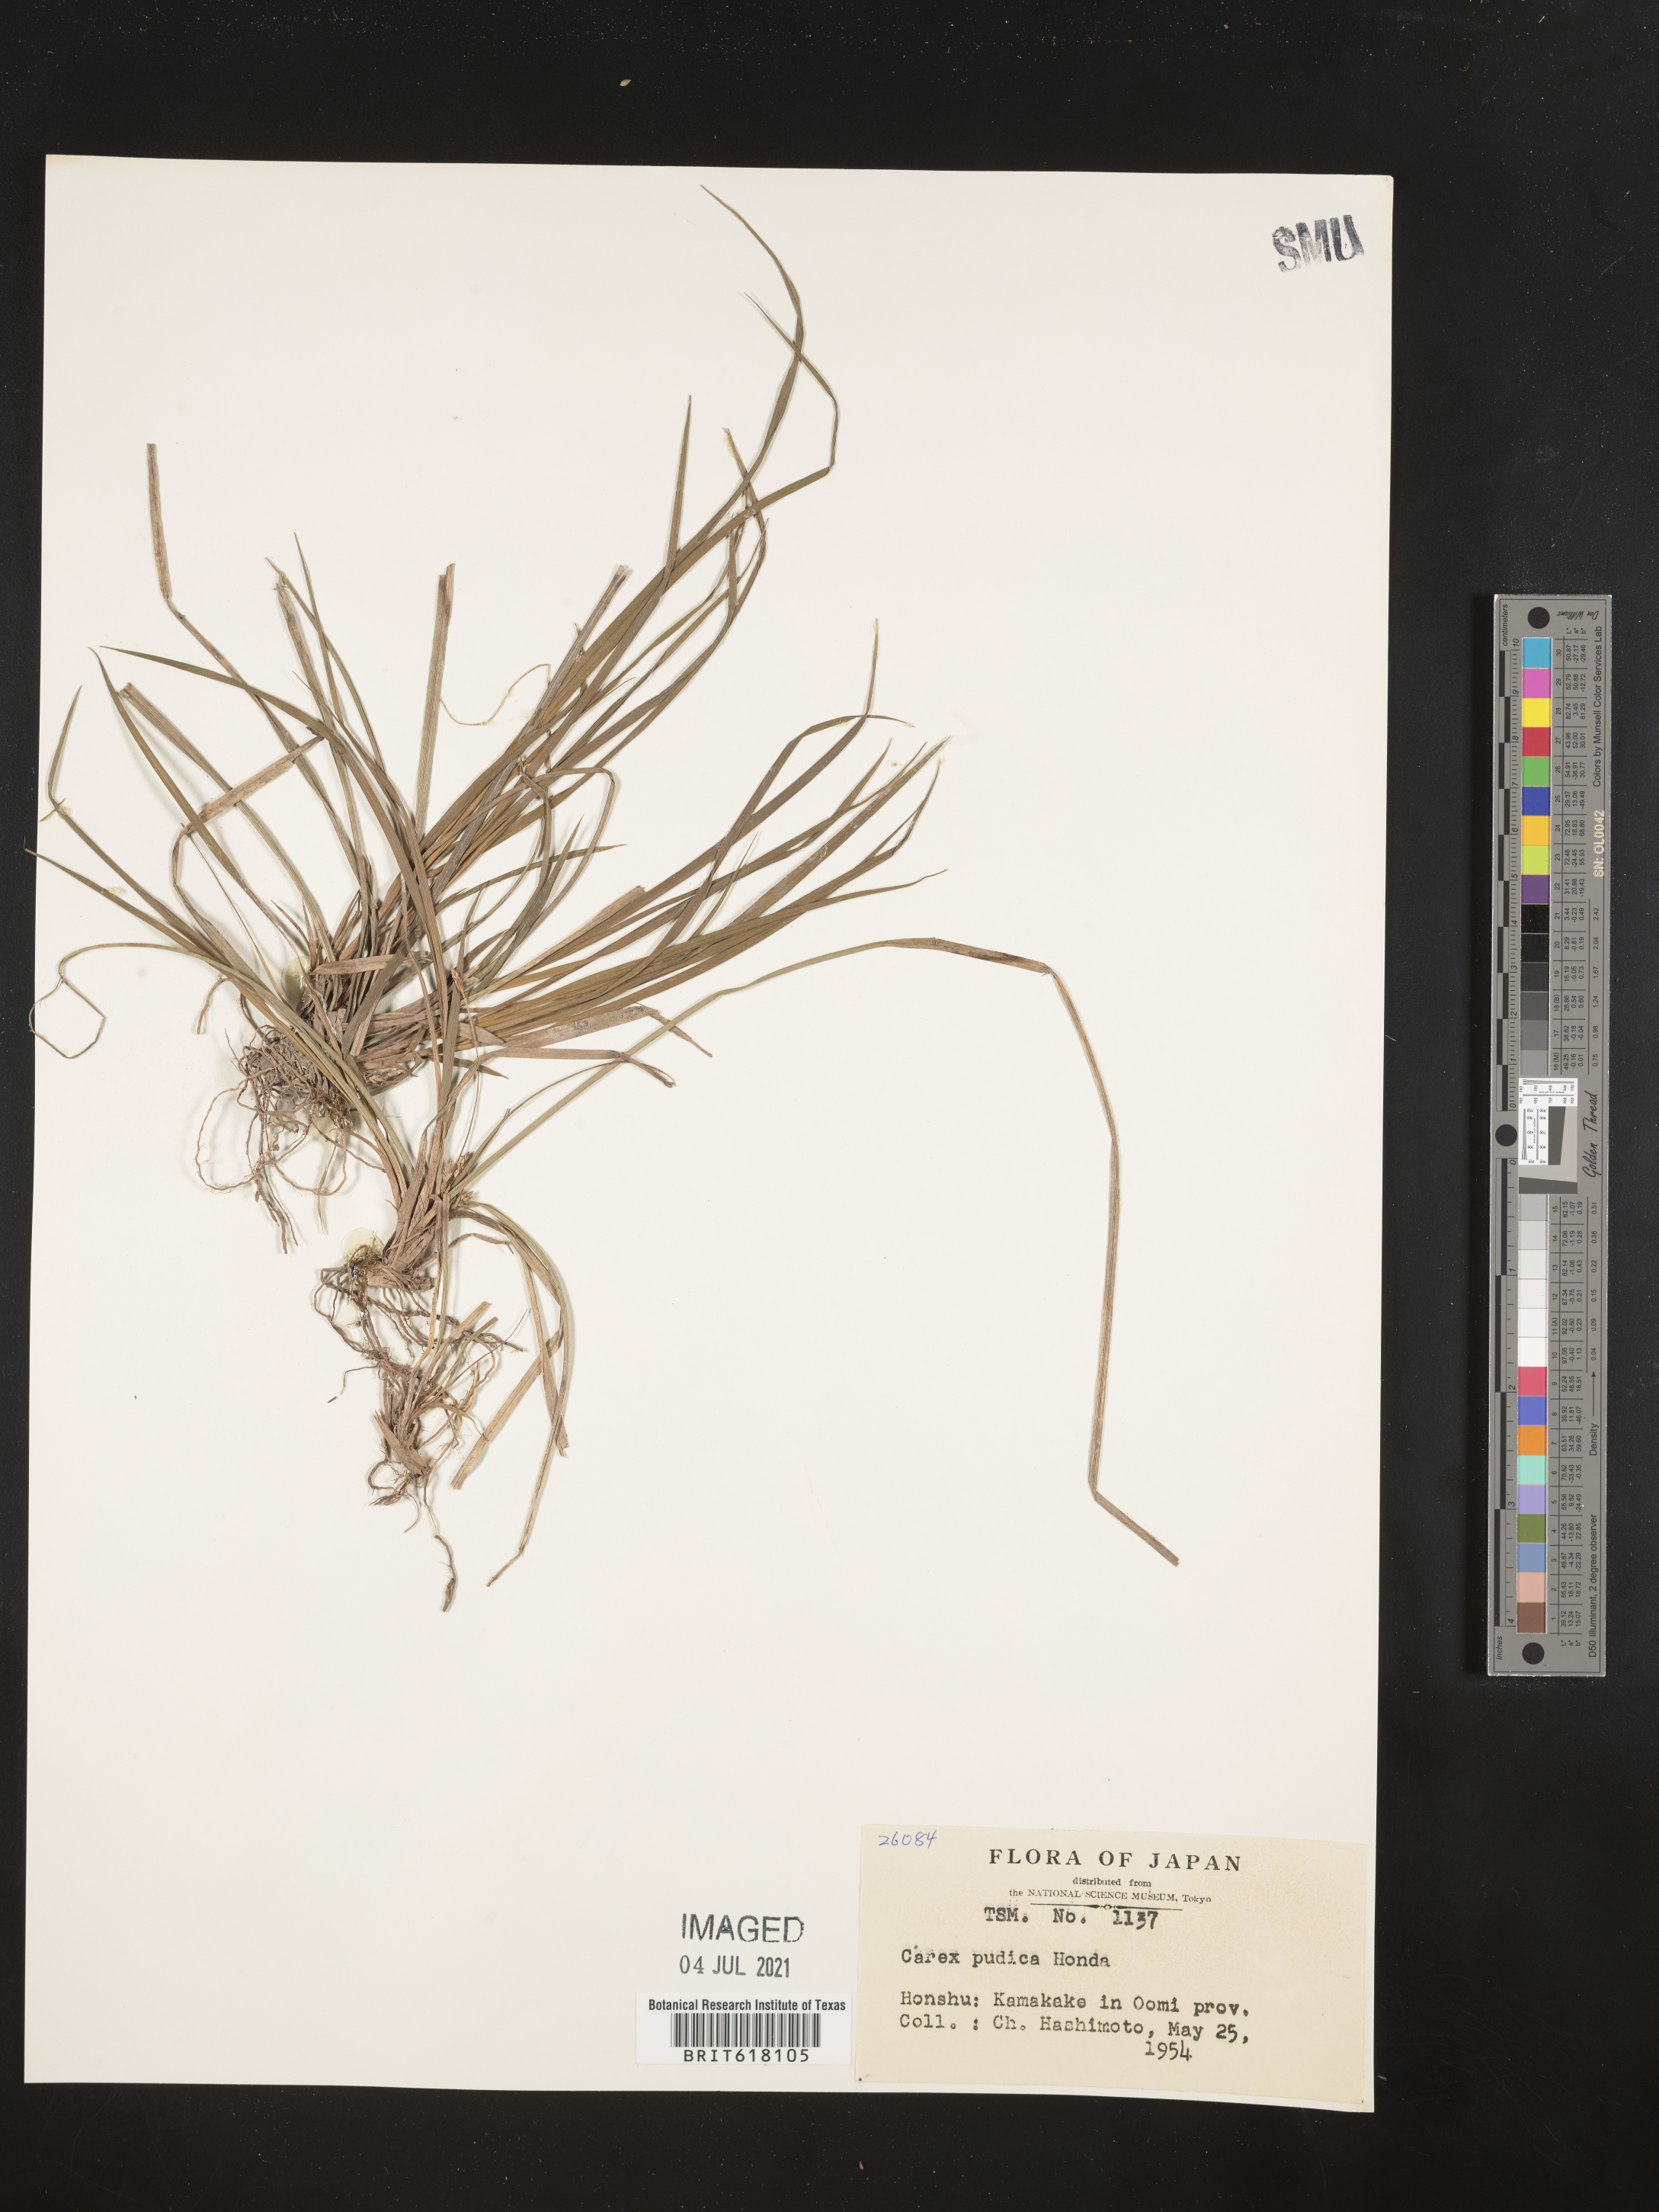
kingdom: Plantae
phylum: Tracheophyta
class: Liliopsida
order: Poales
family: Cyperaceae
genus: Carex
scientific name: Carex pudica
